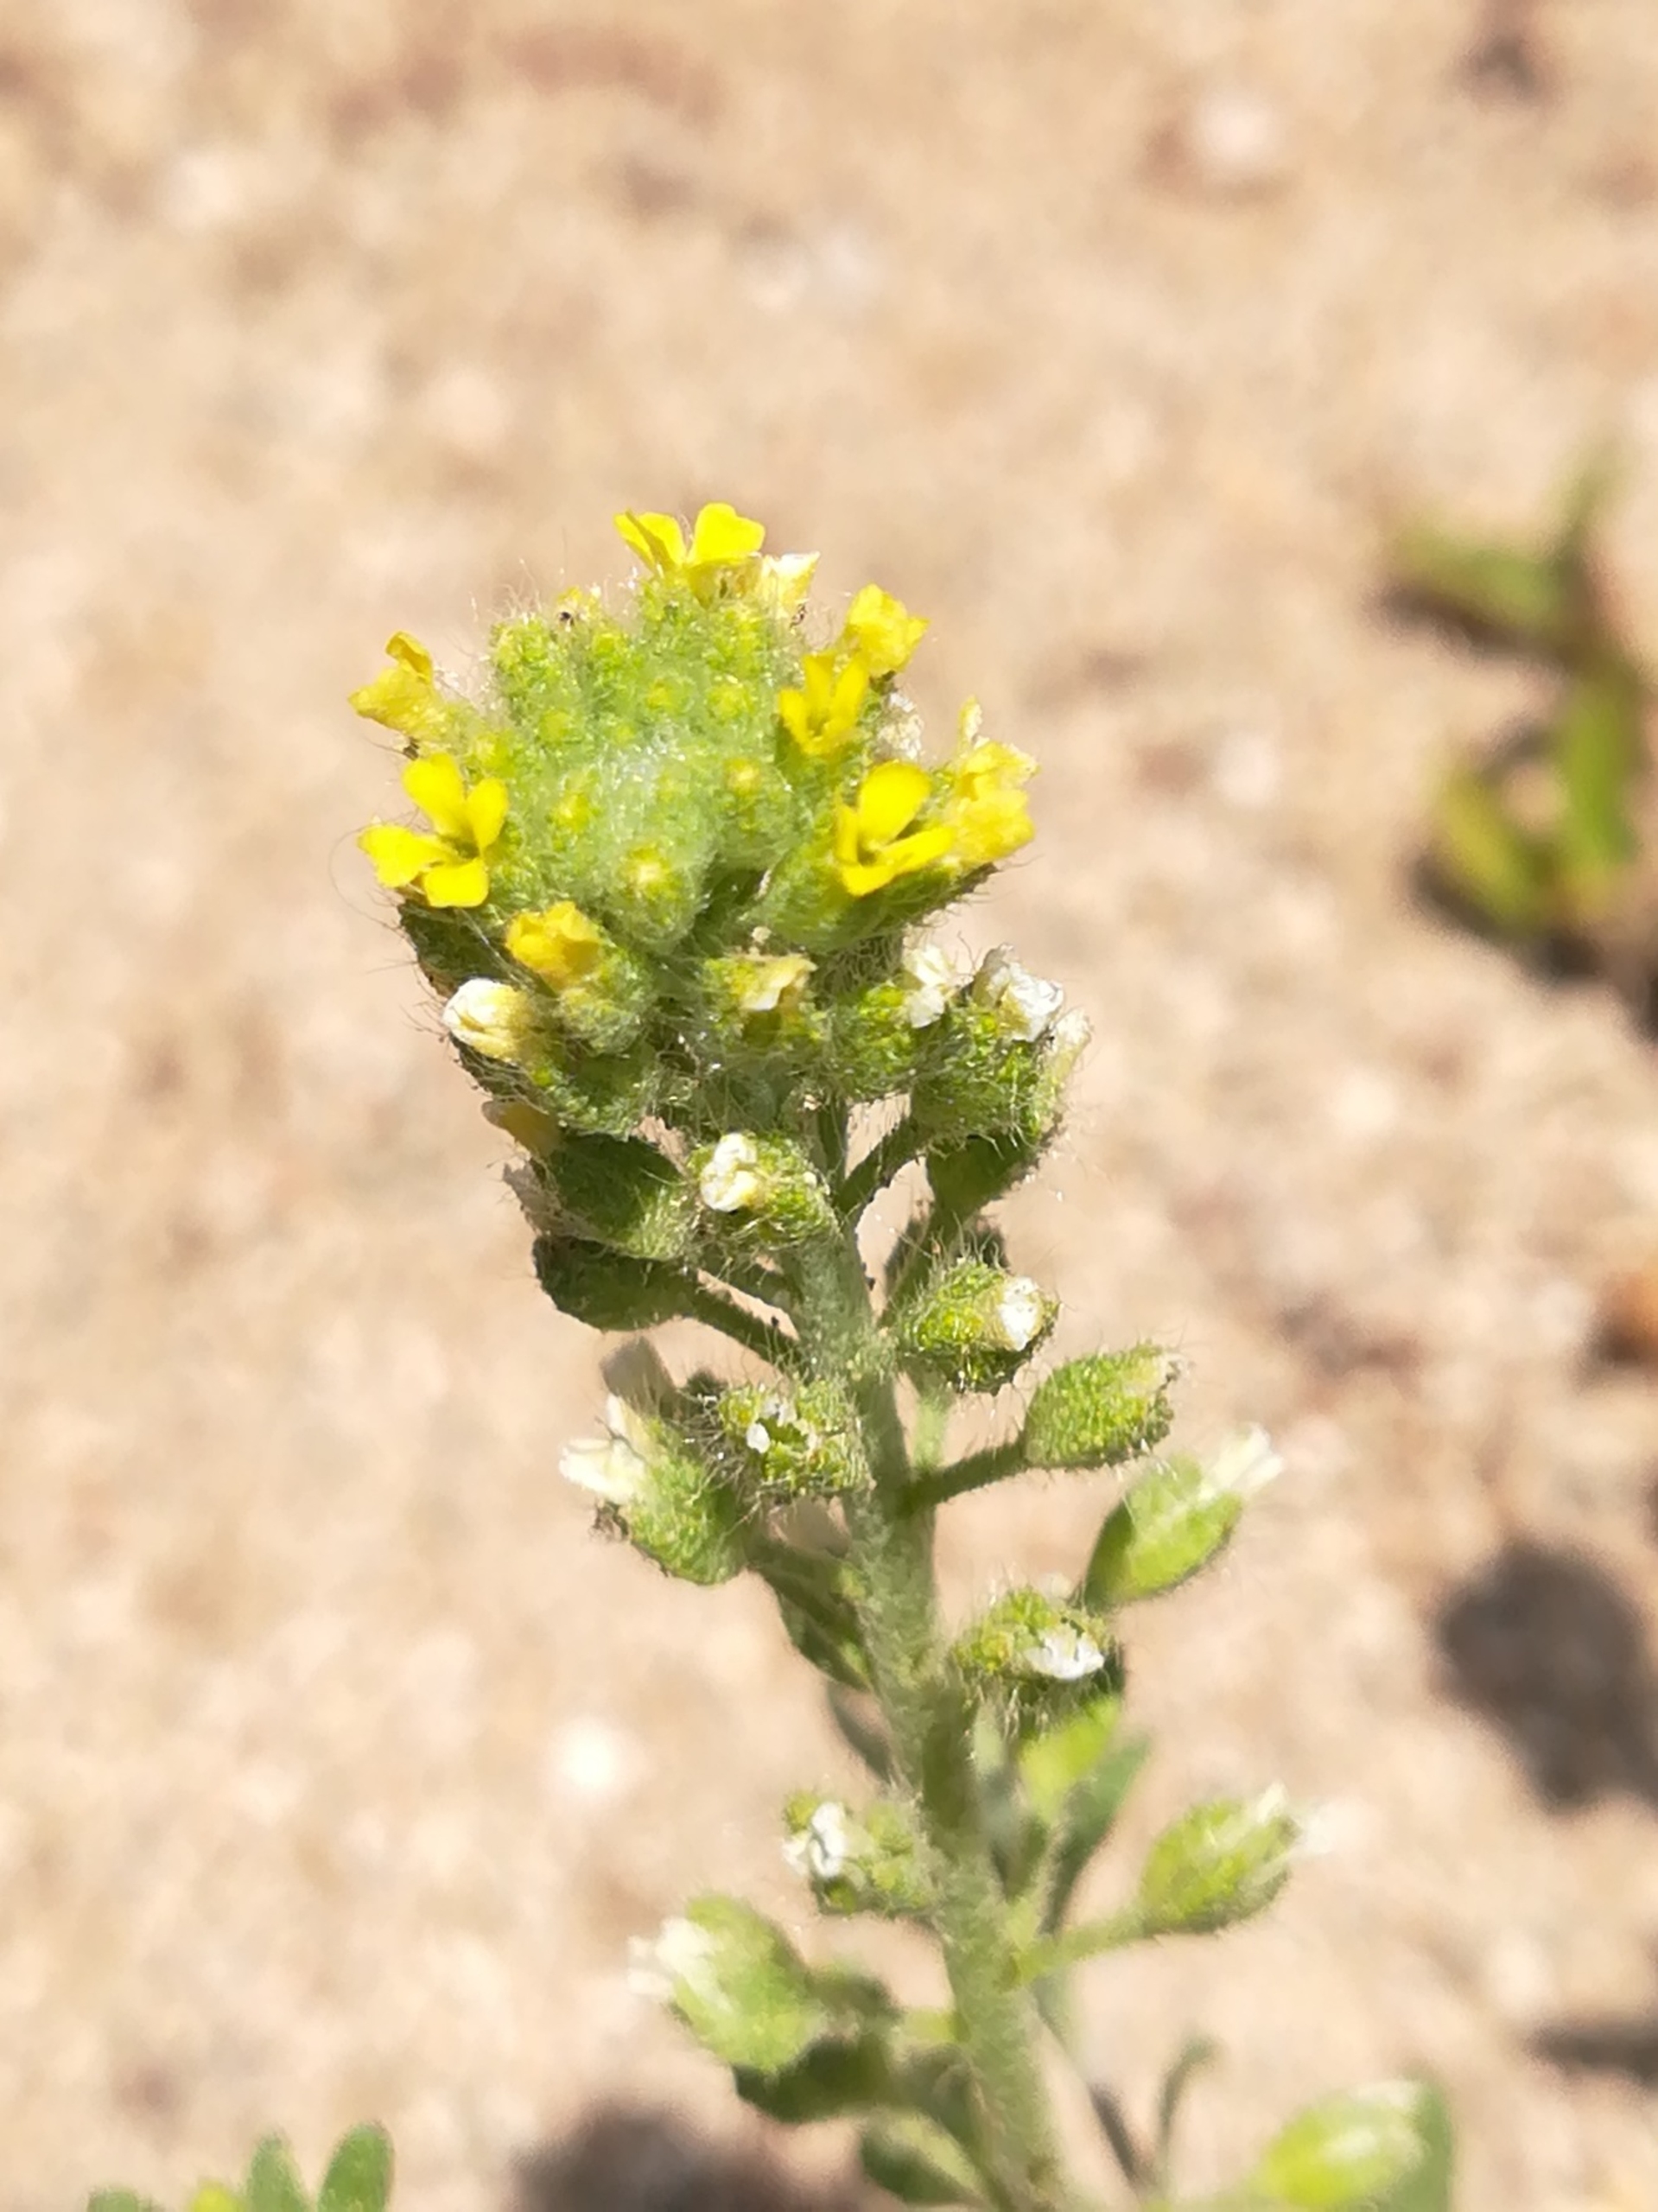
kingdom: Plantae
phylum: Tracheophyta
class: Magnoliopsida
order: Brassicales
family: Brassicaceae
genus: Alyssum
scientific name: Alyssum alyssoides
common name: Grådodder
